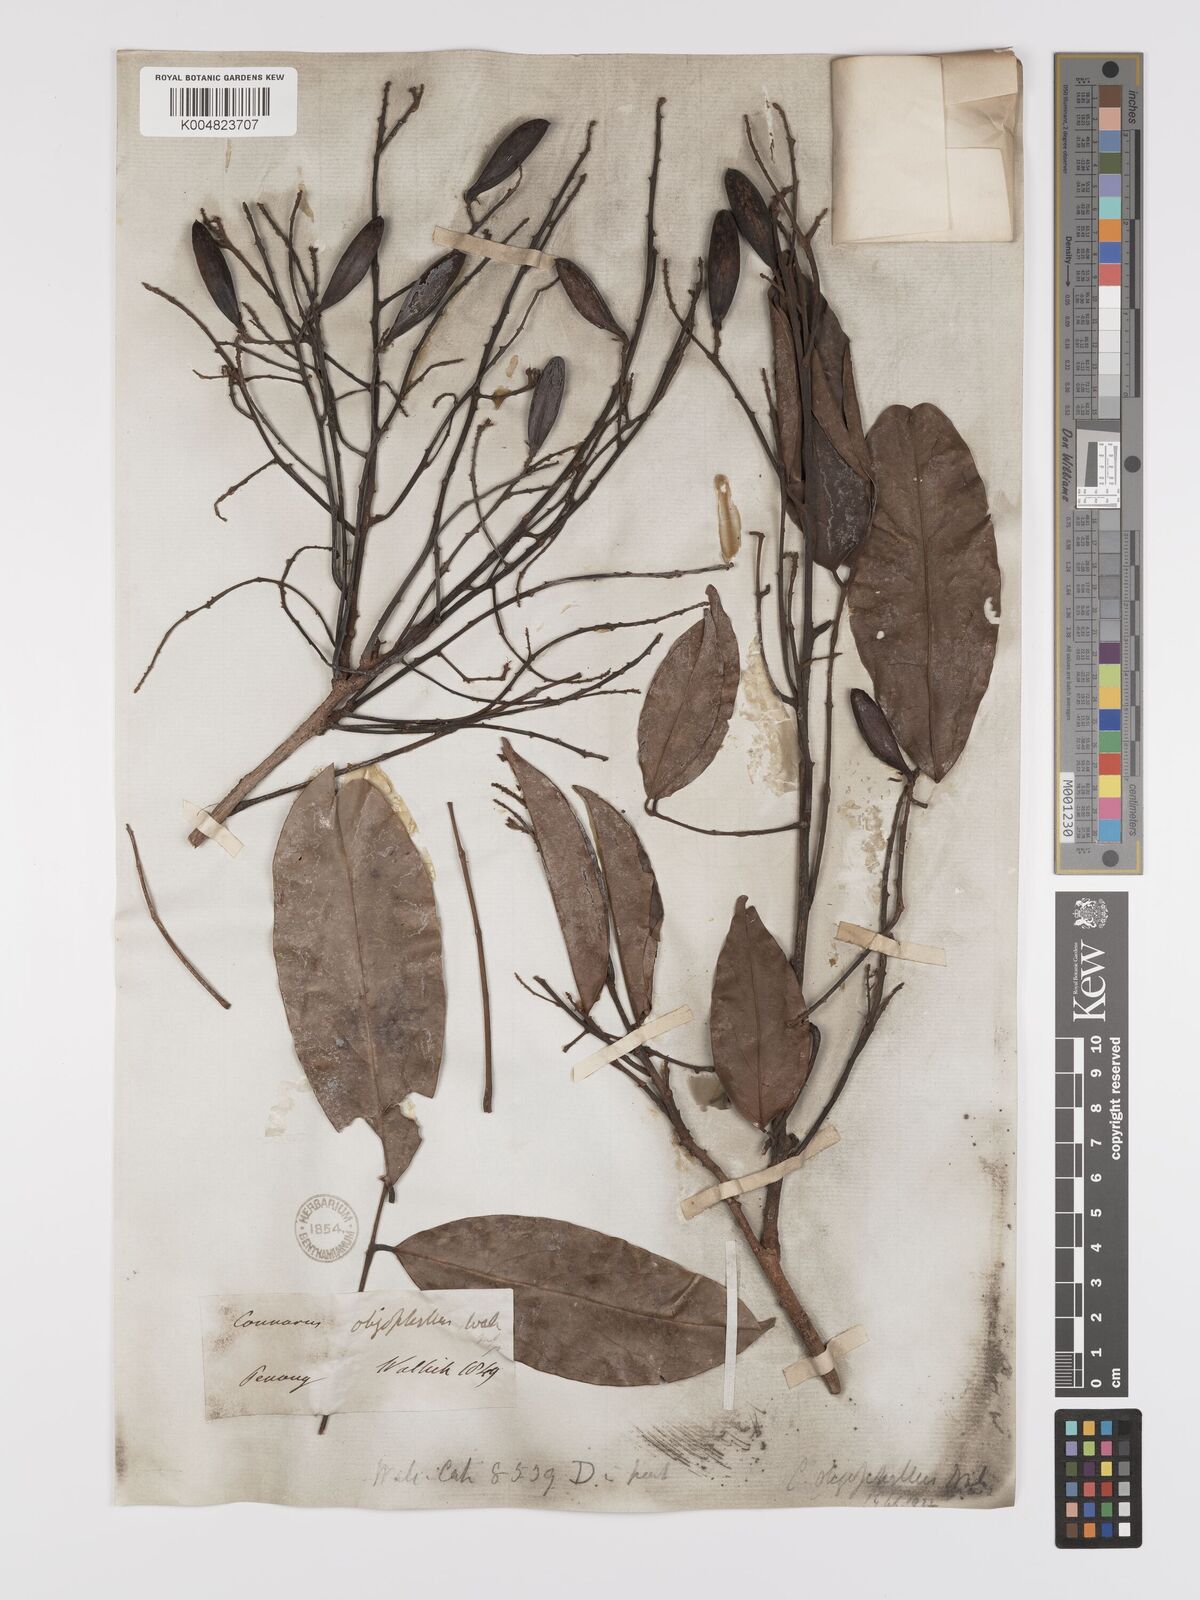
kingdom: Plantae
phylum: Tracheophyta
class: Magnoliopsida
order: Oxalidales
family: Connaraceae
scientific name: Connaraceae
